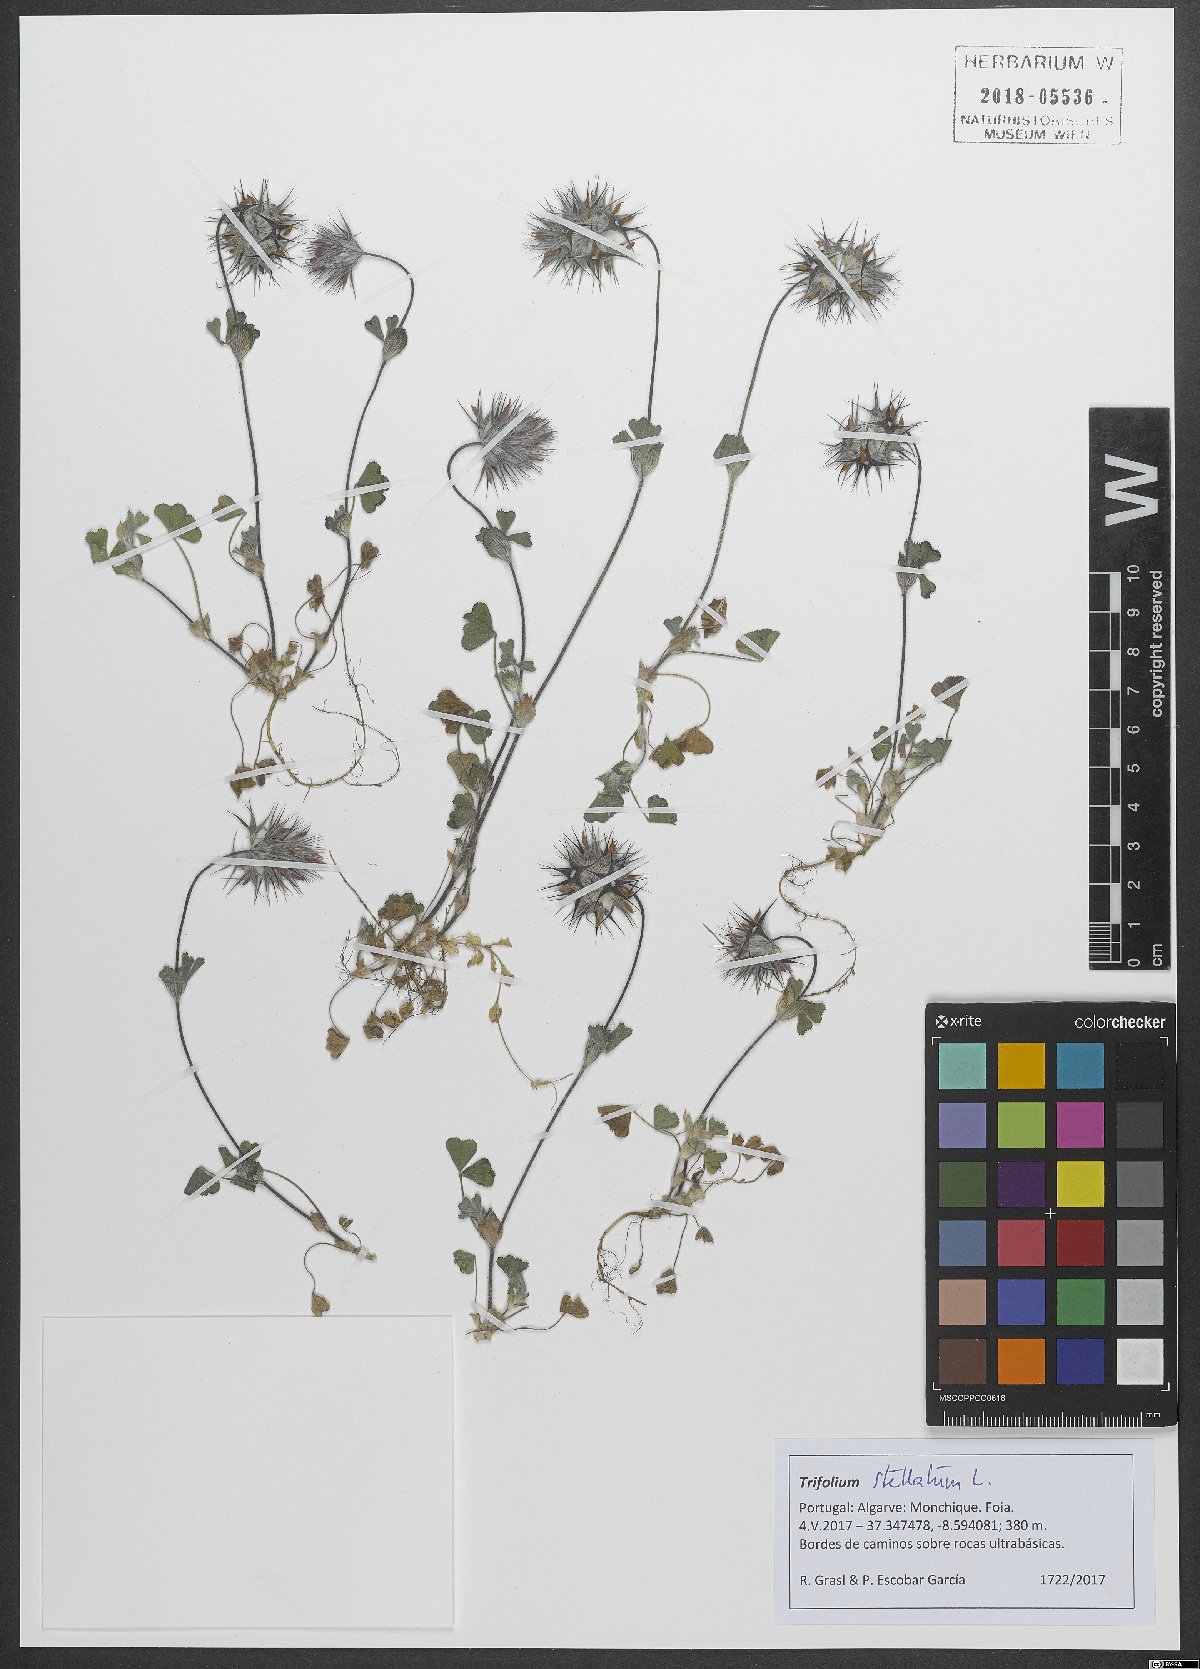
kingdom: Plantae
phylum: Tracheophyta
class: Magnoliopsida
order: Fabales
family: Fabaceae
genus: Trifolium
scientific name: Trifolium stellatum
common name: Starry clover
